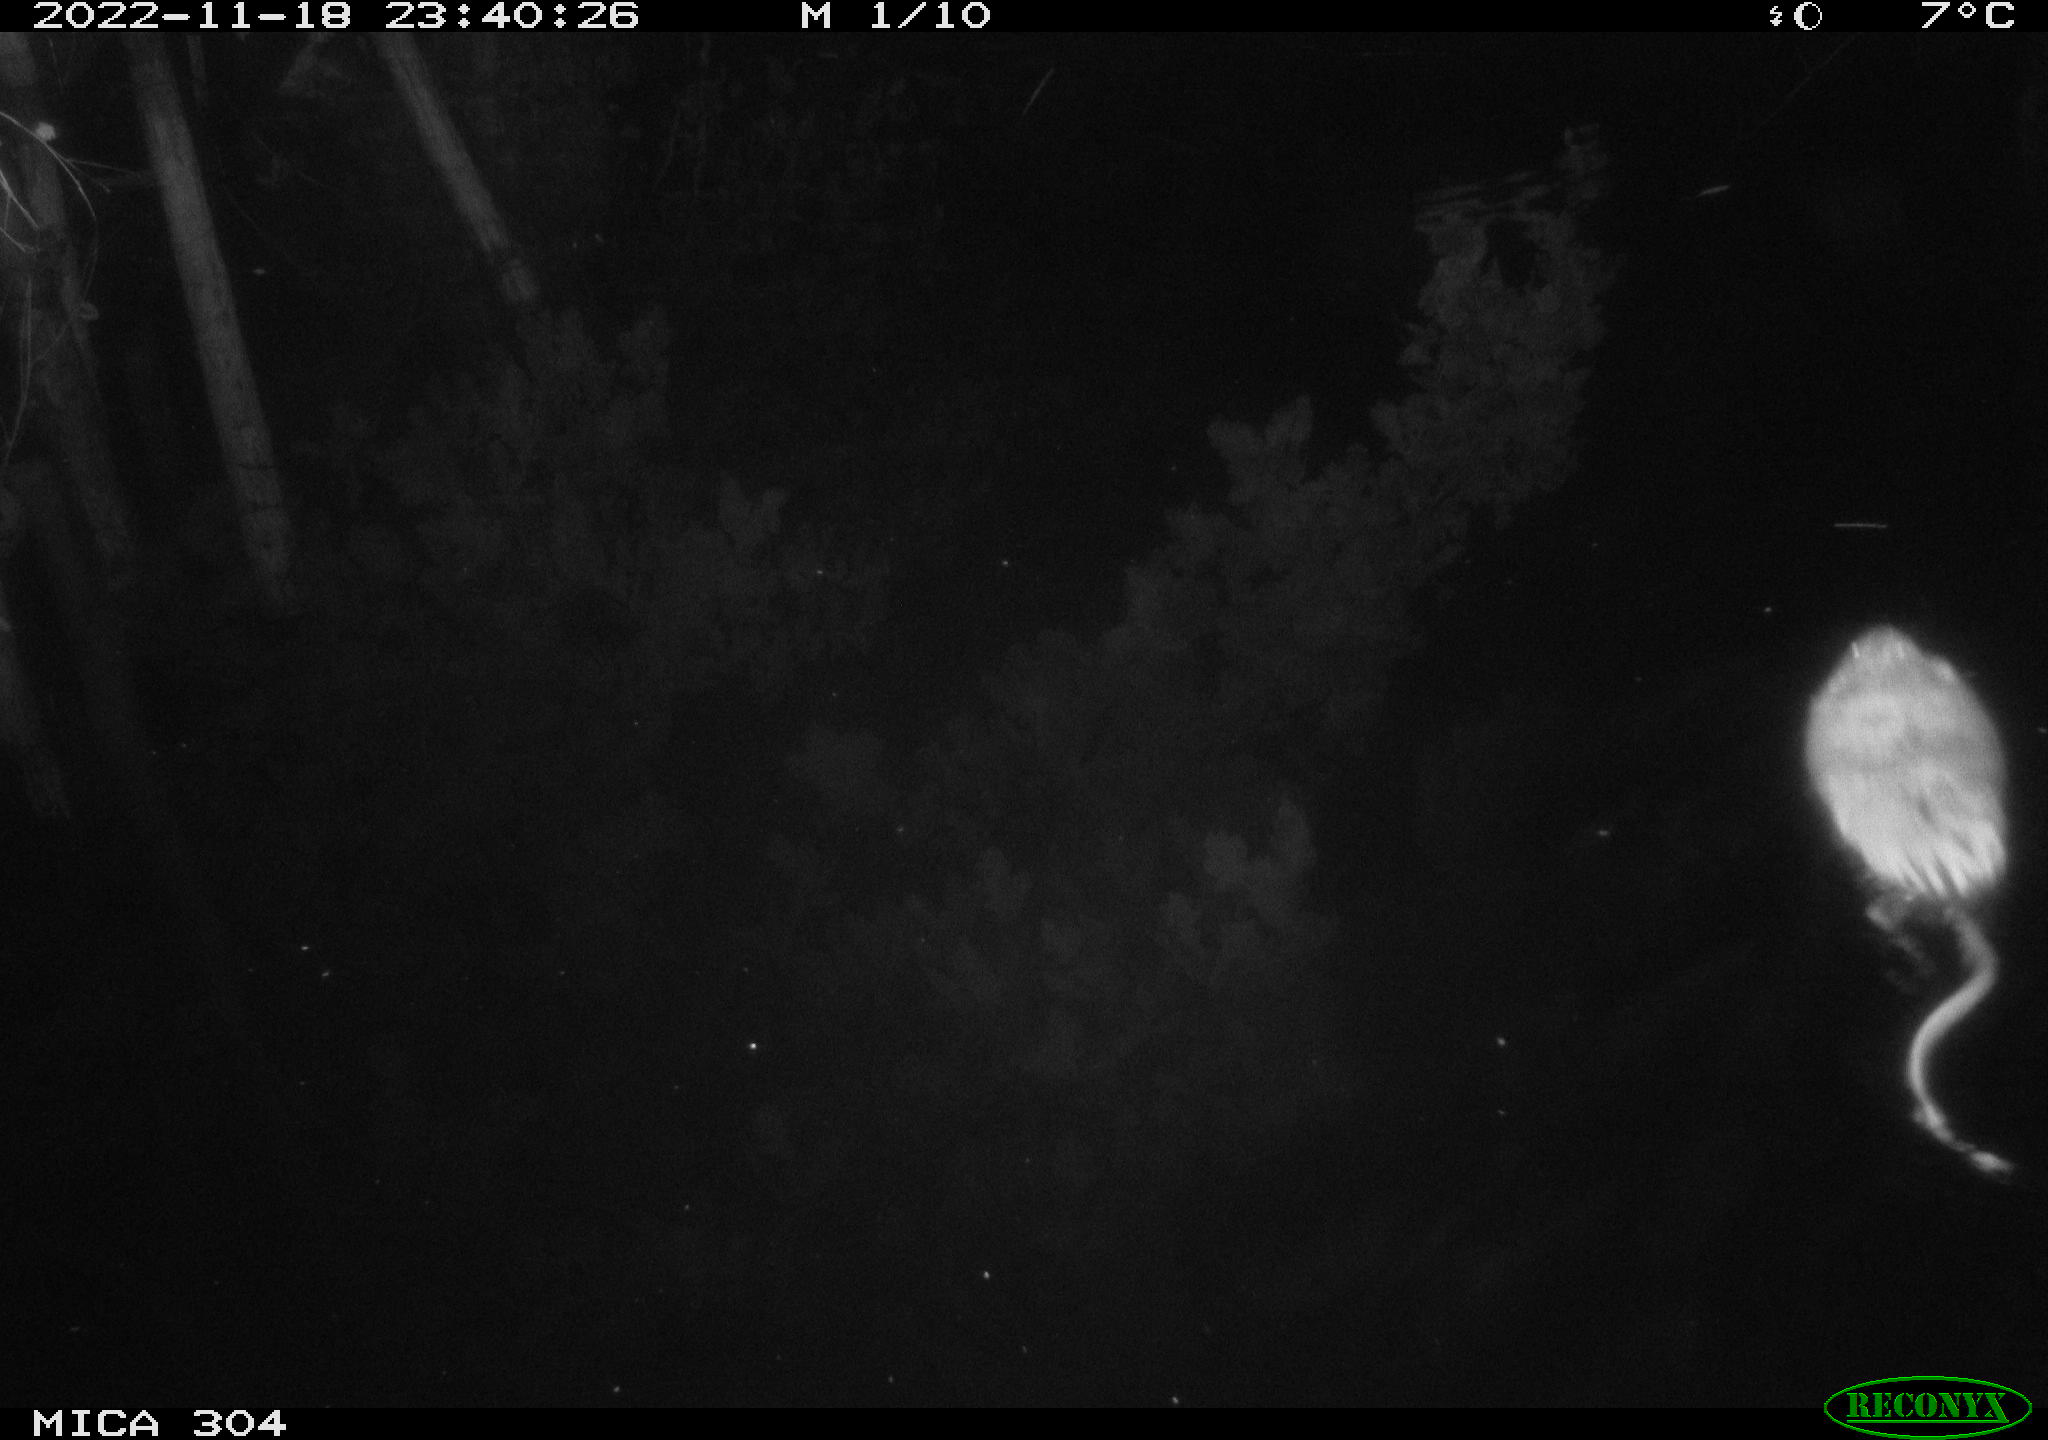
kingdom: Animalia
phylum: Chordata
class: Mammalia
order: Rodentia
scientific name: Rodentia
